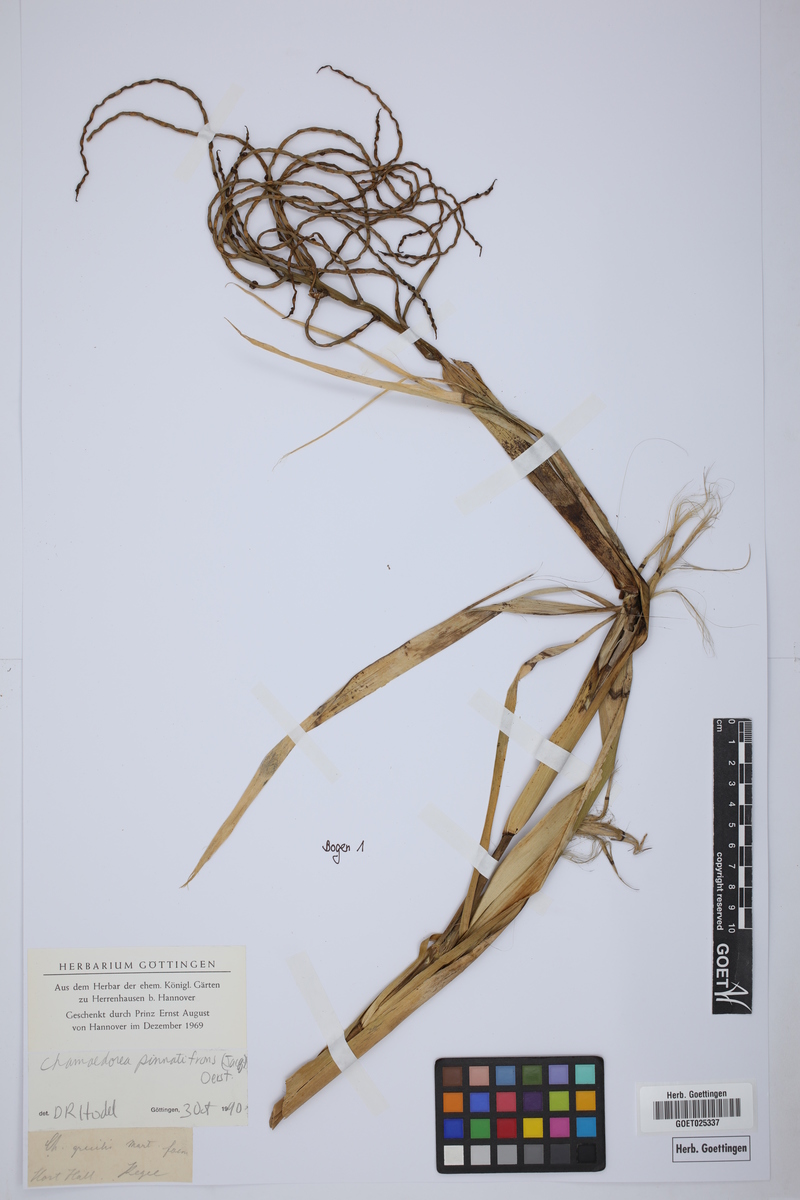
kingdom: Plantae
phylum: Tracheophyta
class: Liliopsida
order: Arecales
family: Arecaceae
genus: Chamaedorea
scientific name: Chamaedorea pinnatifrons
